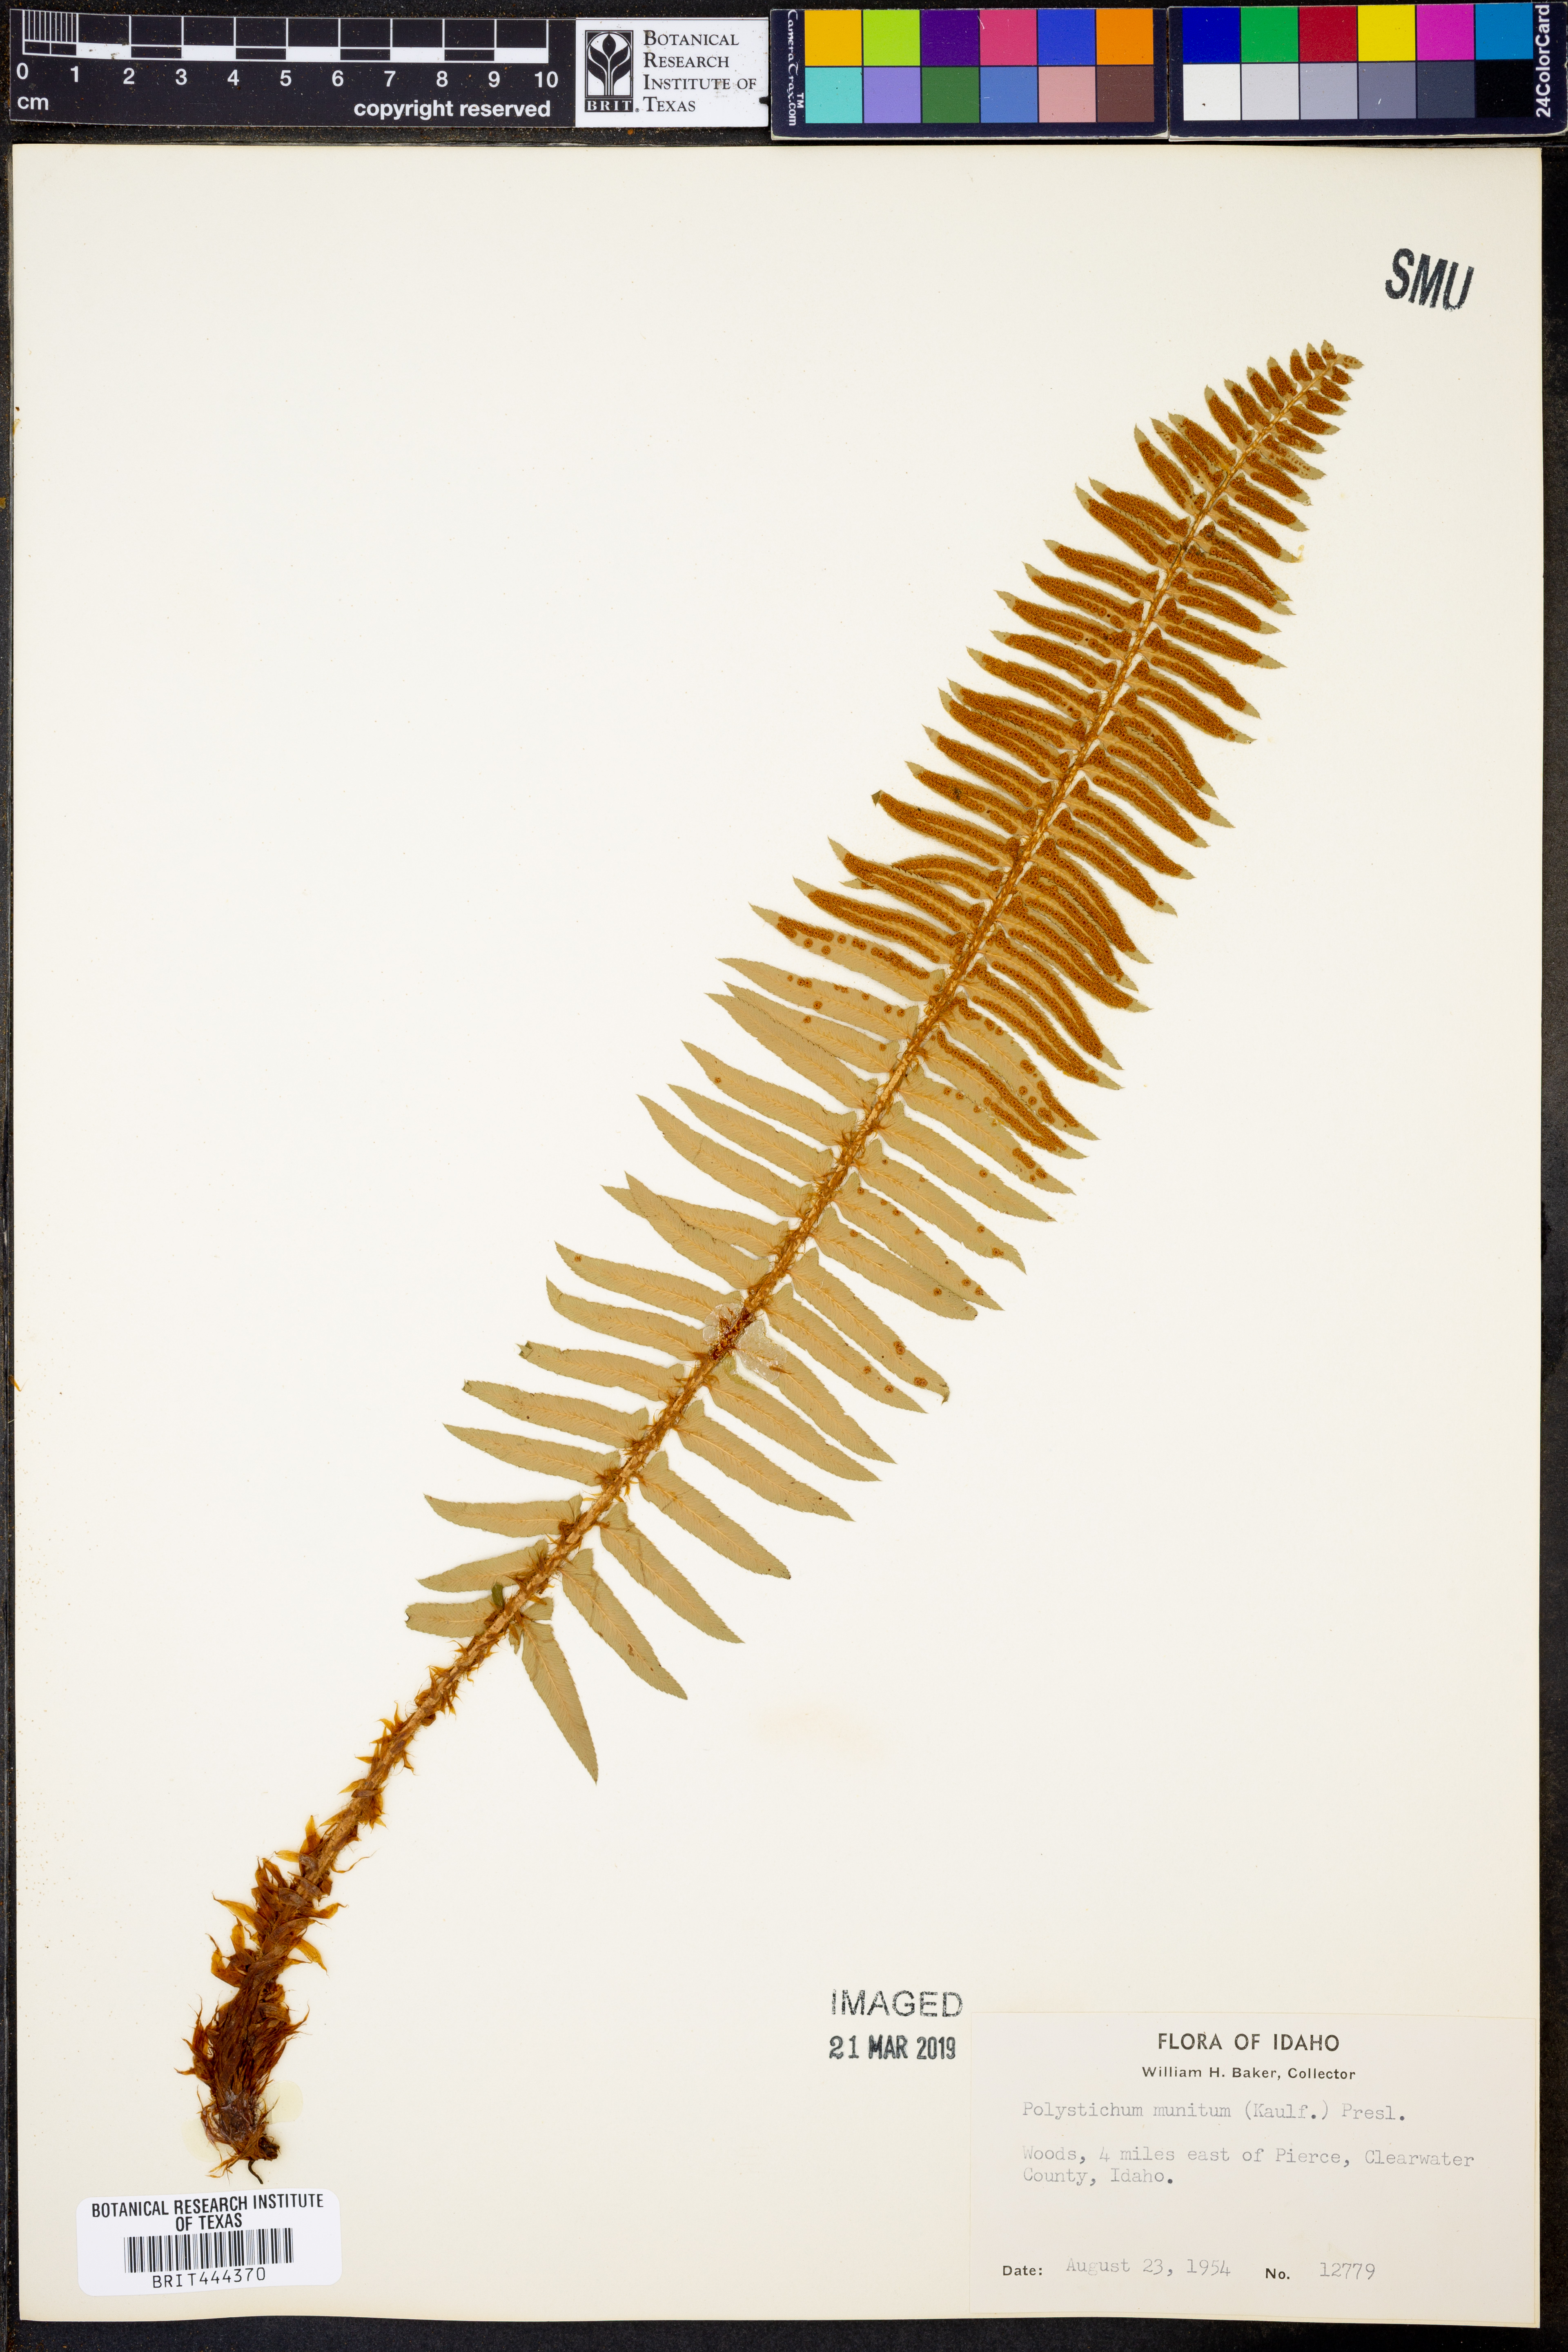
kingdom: Plantae
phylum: Tracheophyta
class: Polypodiopsida
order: Polypodiales
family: Dryopteridaceae
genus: Polystichum
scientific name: Polystichum munitum
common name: Western sword-fern
